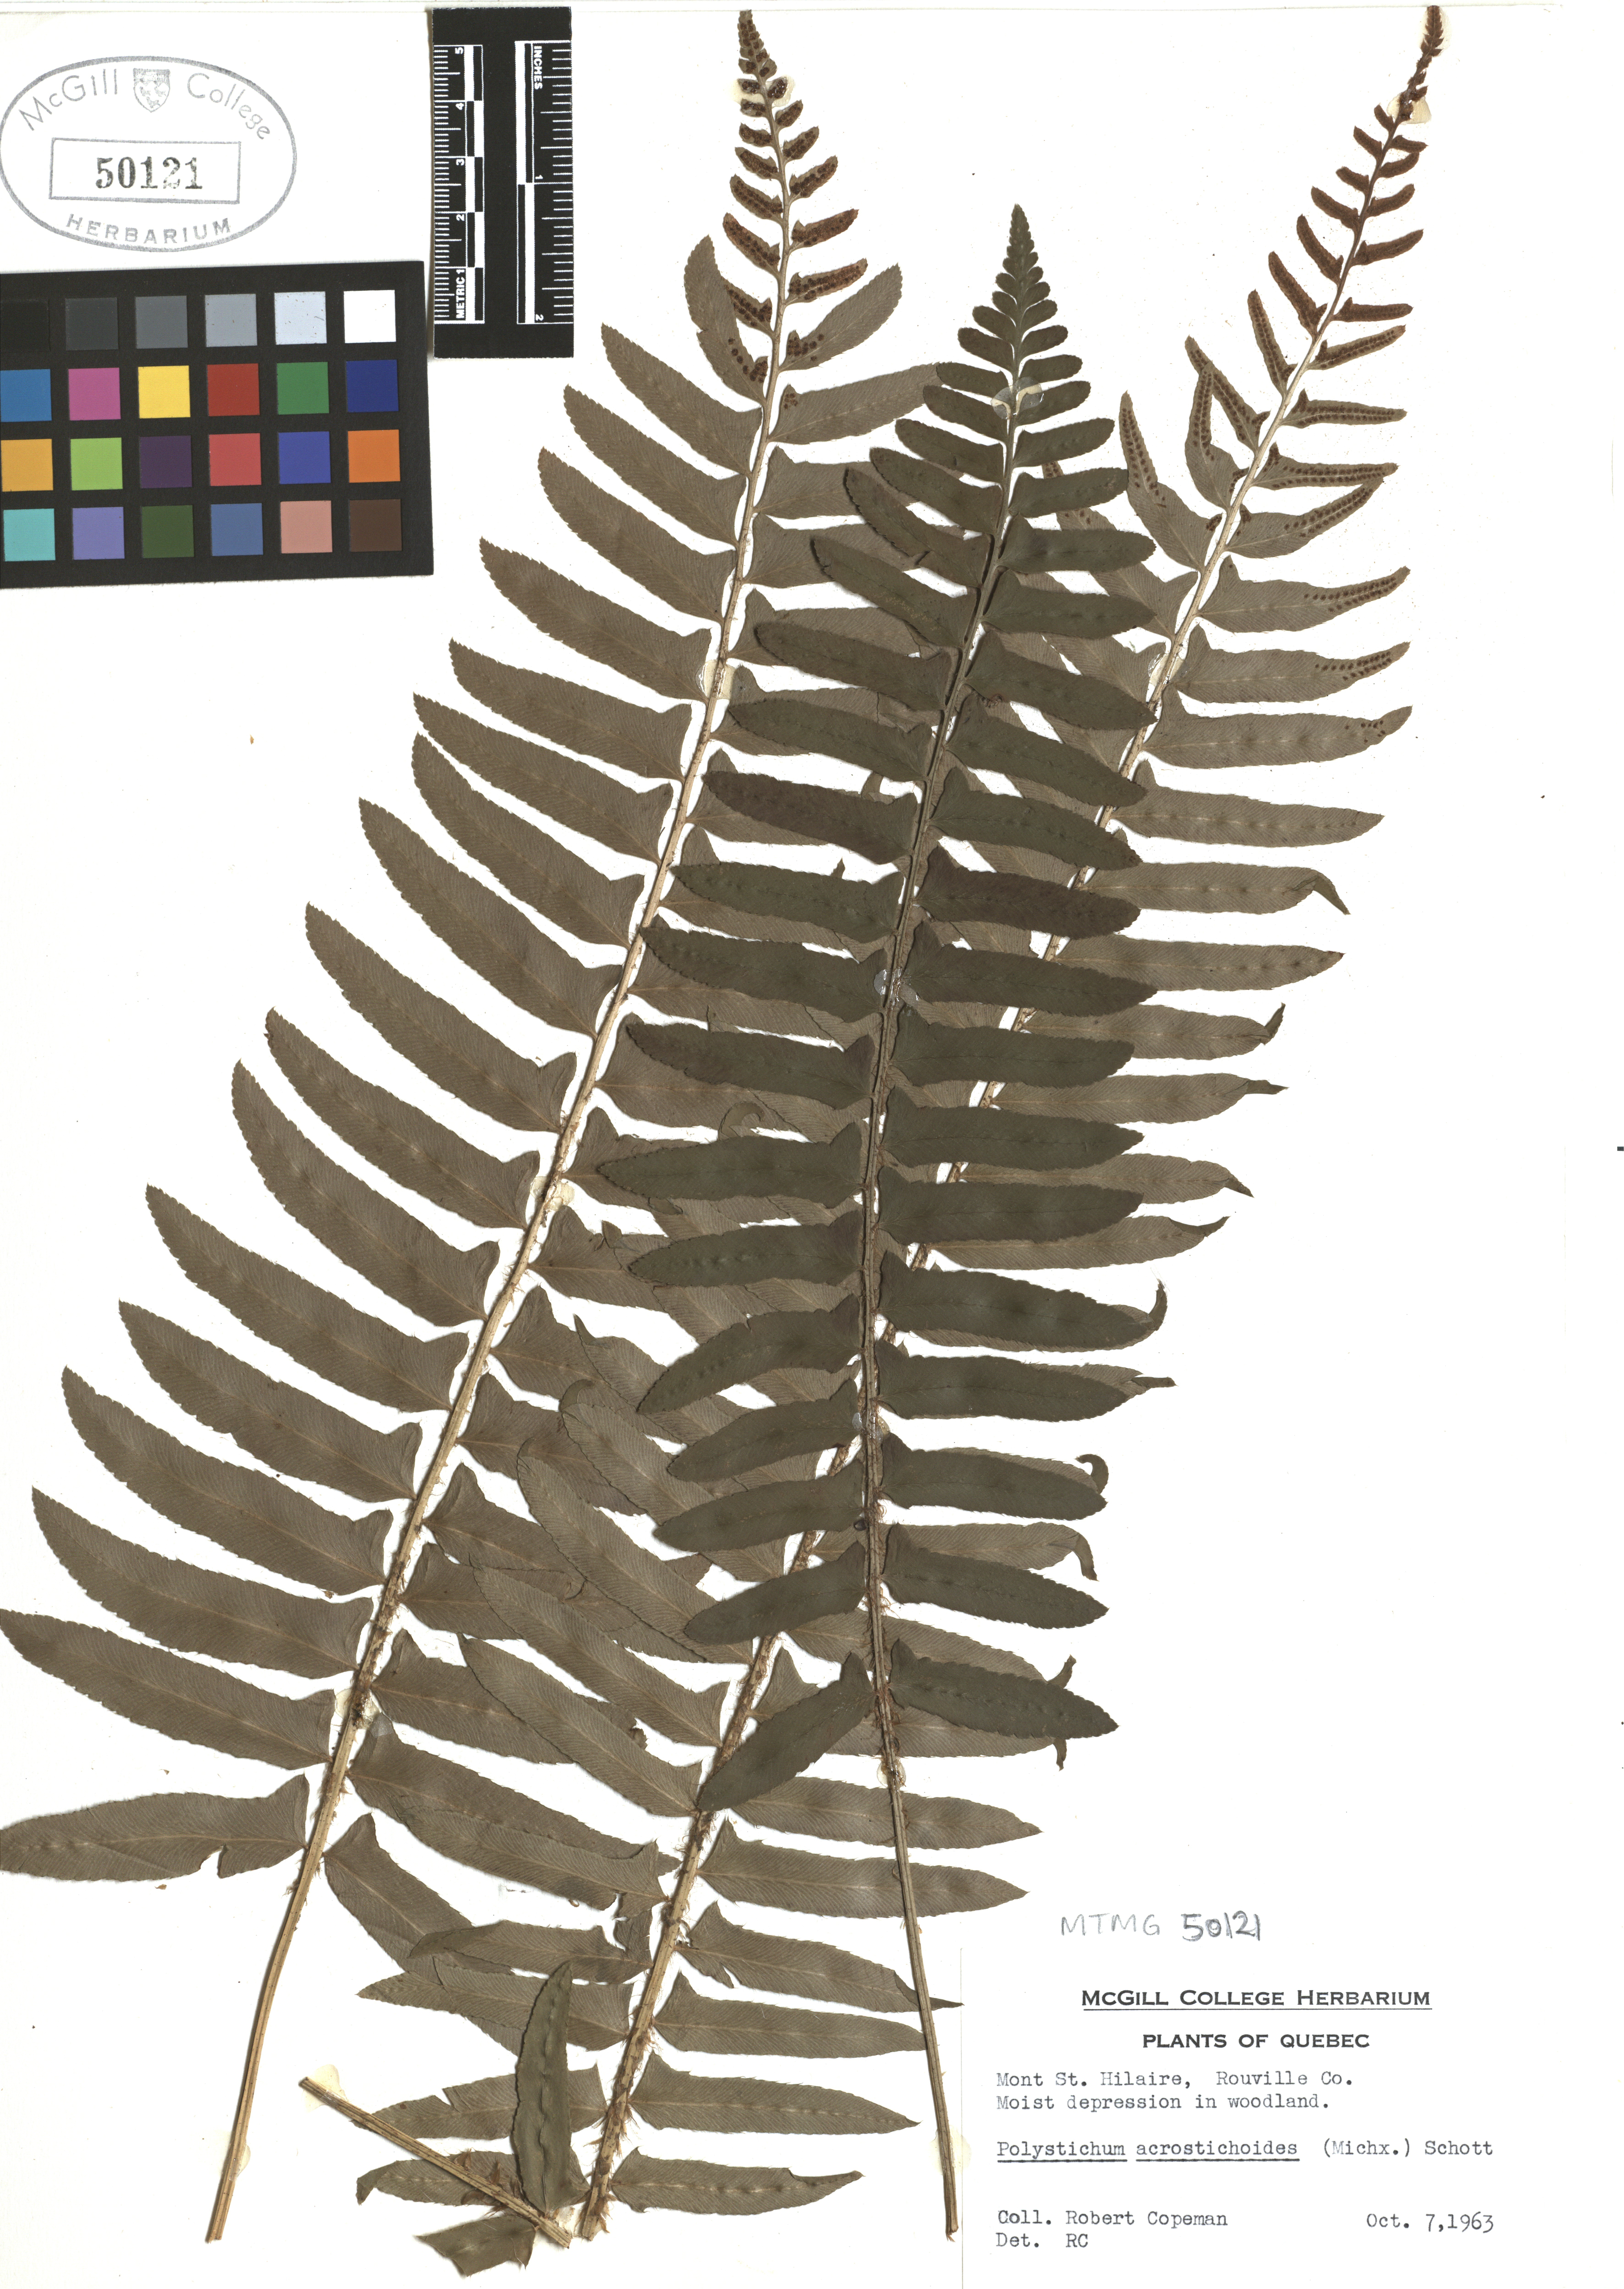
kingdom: Plantae
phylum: Tracheophyta
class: Polypodiopsida
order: Polypodiales
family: Dryopteridaceae
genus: Polystichum
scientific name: Polystichum acrostichoides
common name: Christmas fern
